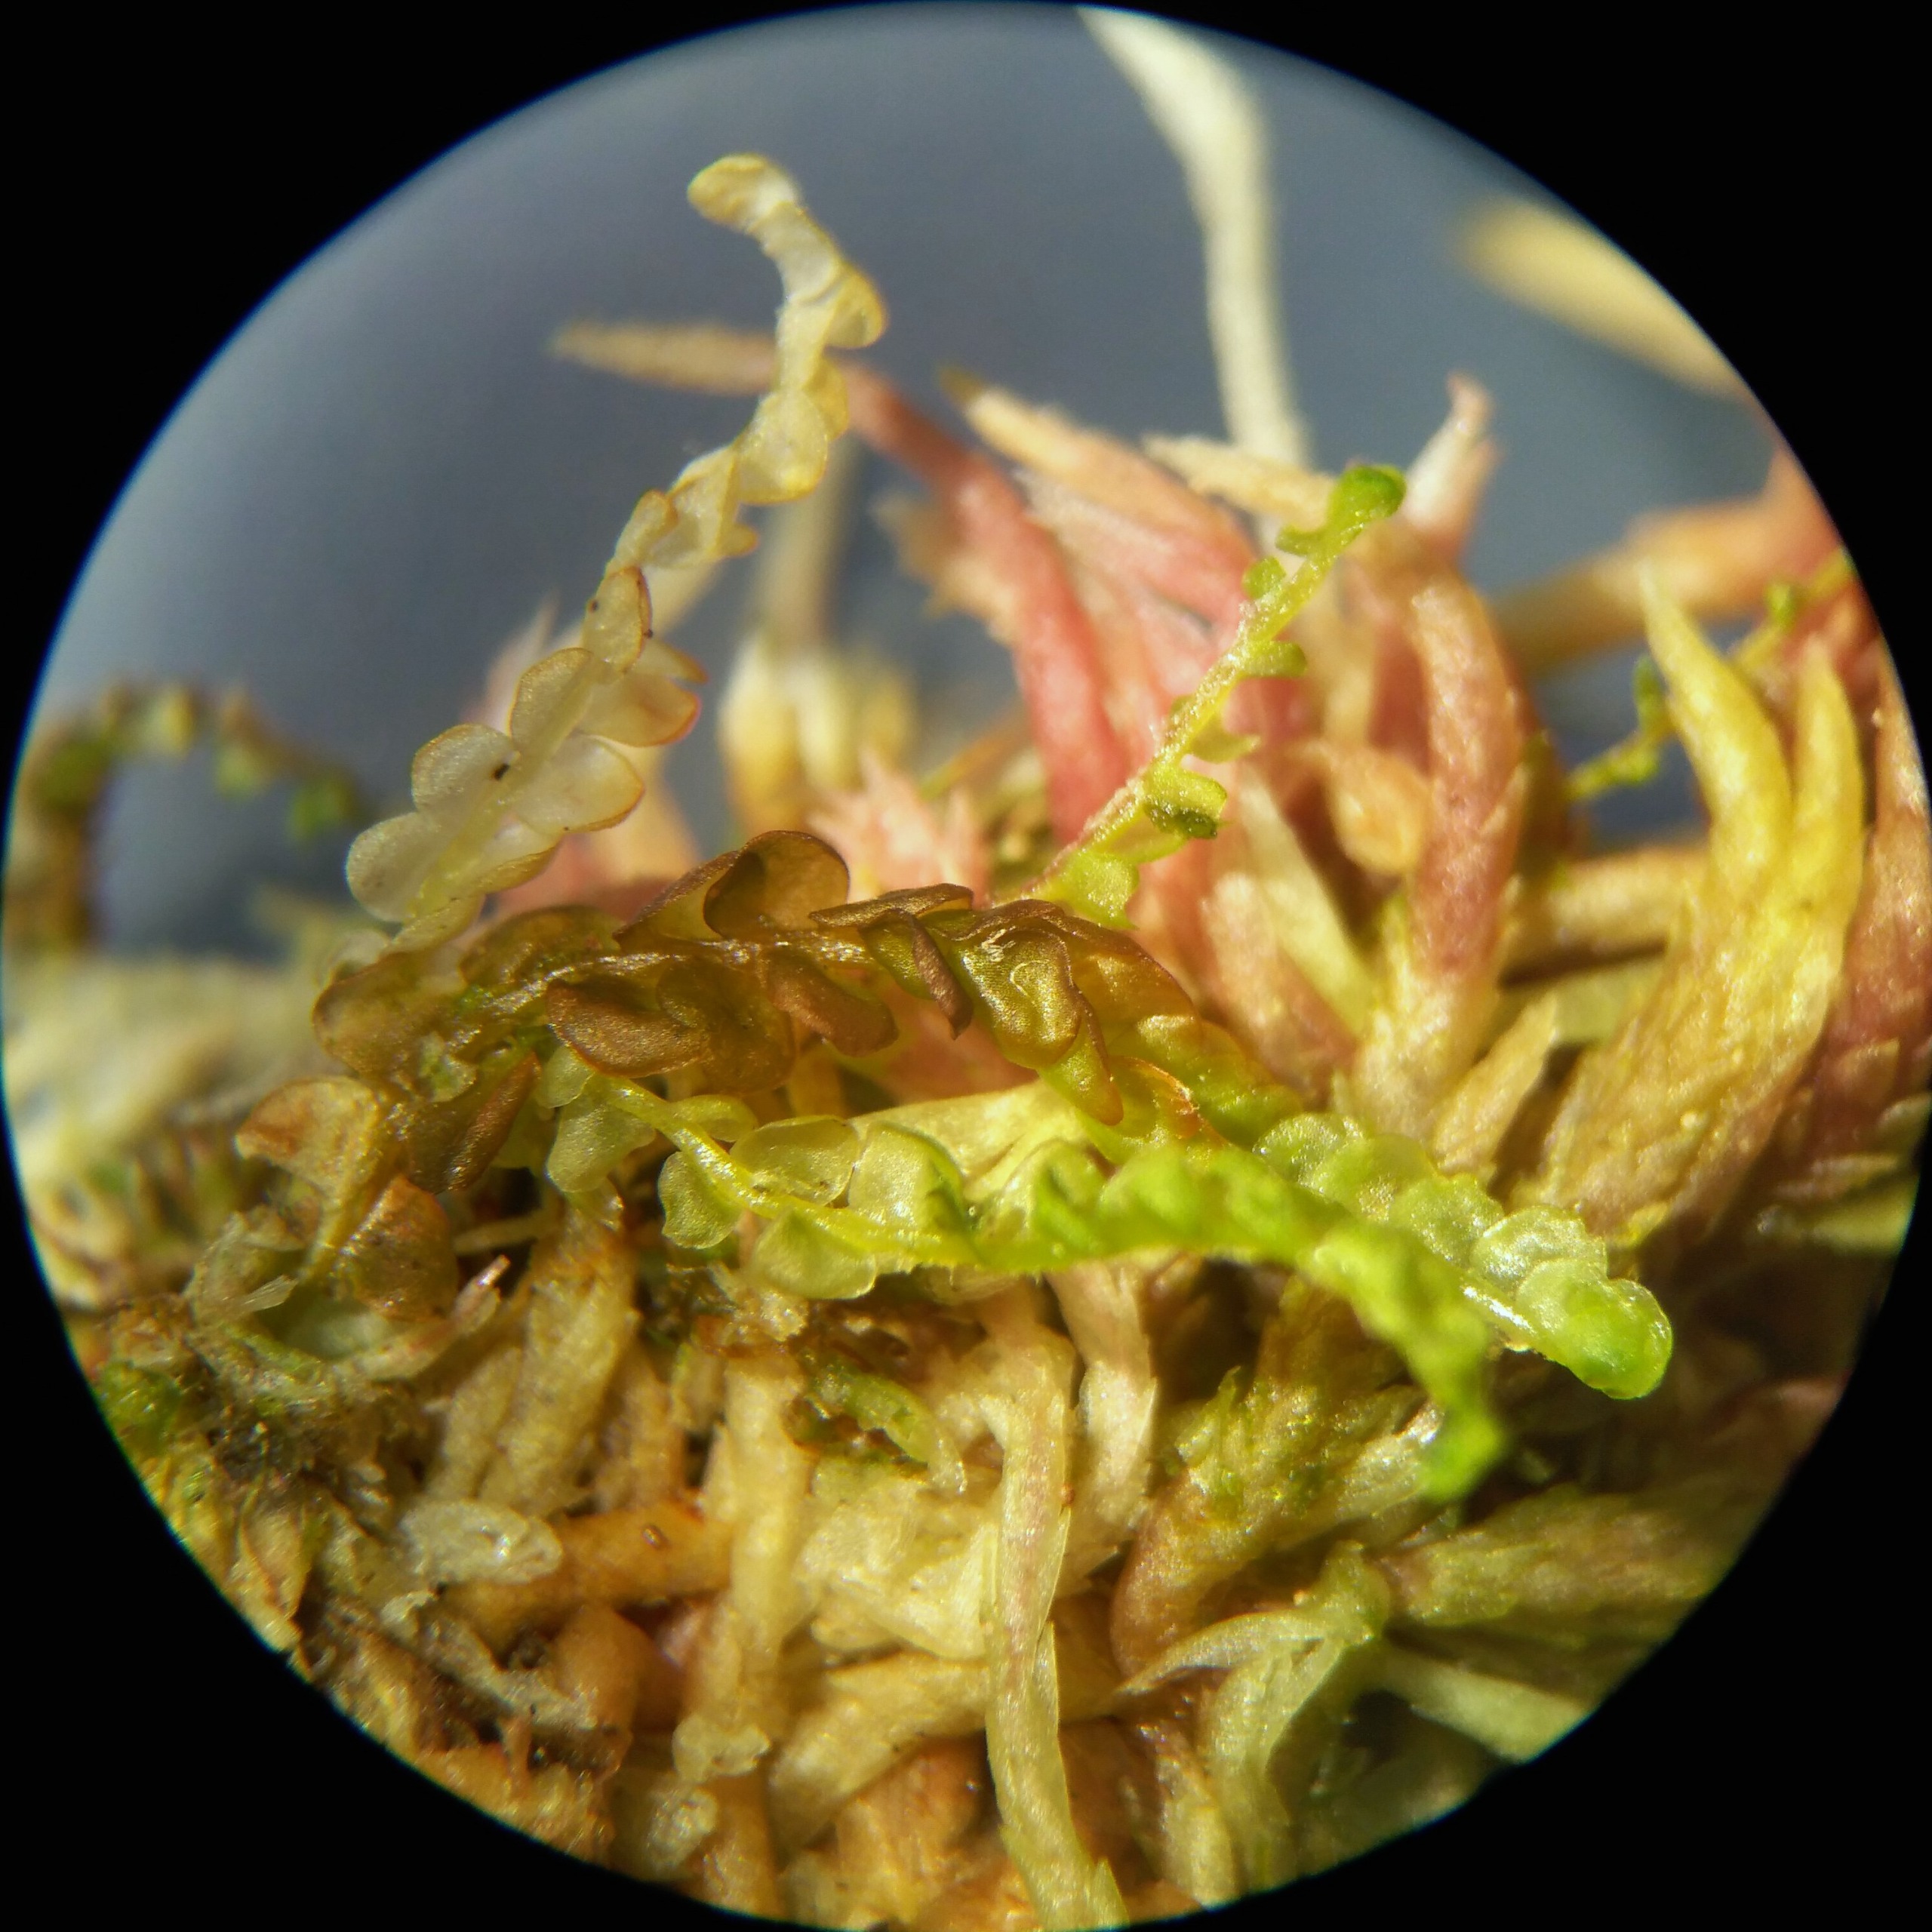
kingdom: Plantae
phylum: Marchantiophyta
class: Jungermanniopsida
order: Jungermanniales
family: Cephaloziaceae
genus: Odontoschisma
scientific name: Odontoschisma sphagni
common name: Almindelig flagelmos
